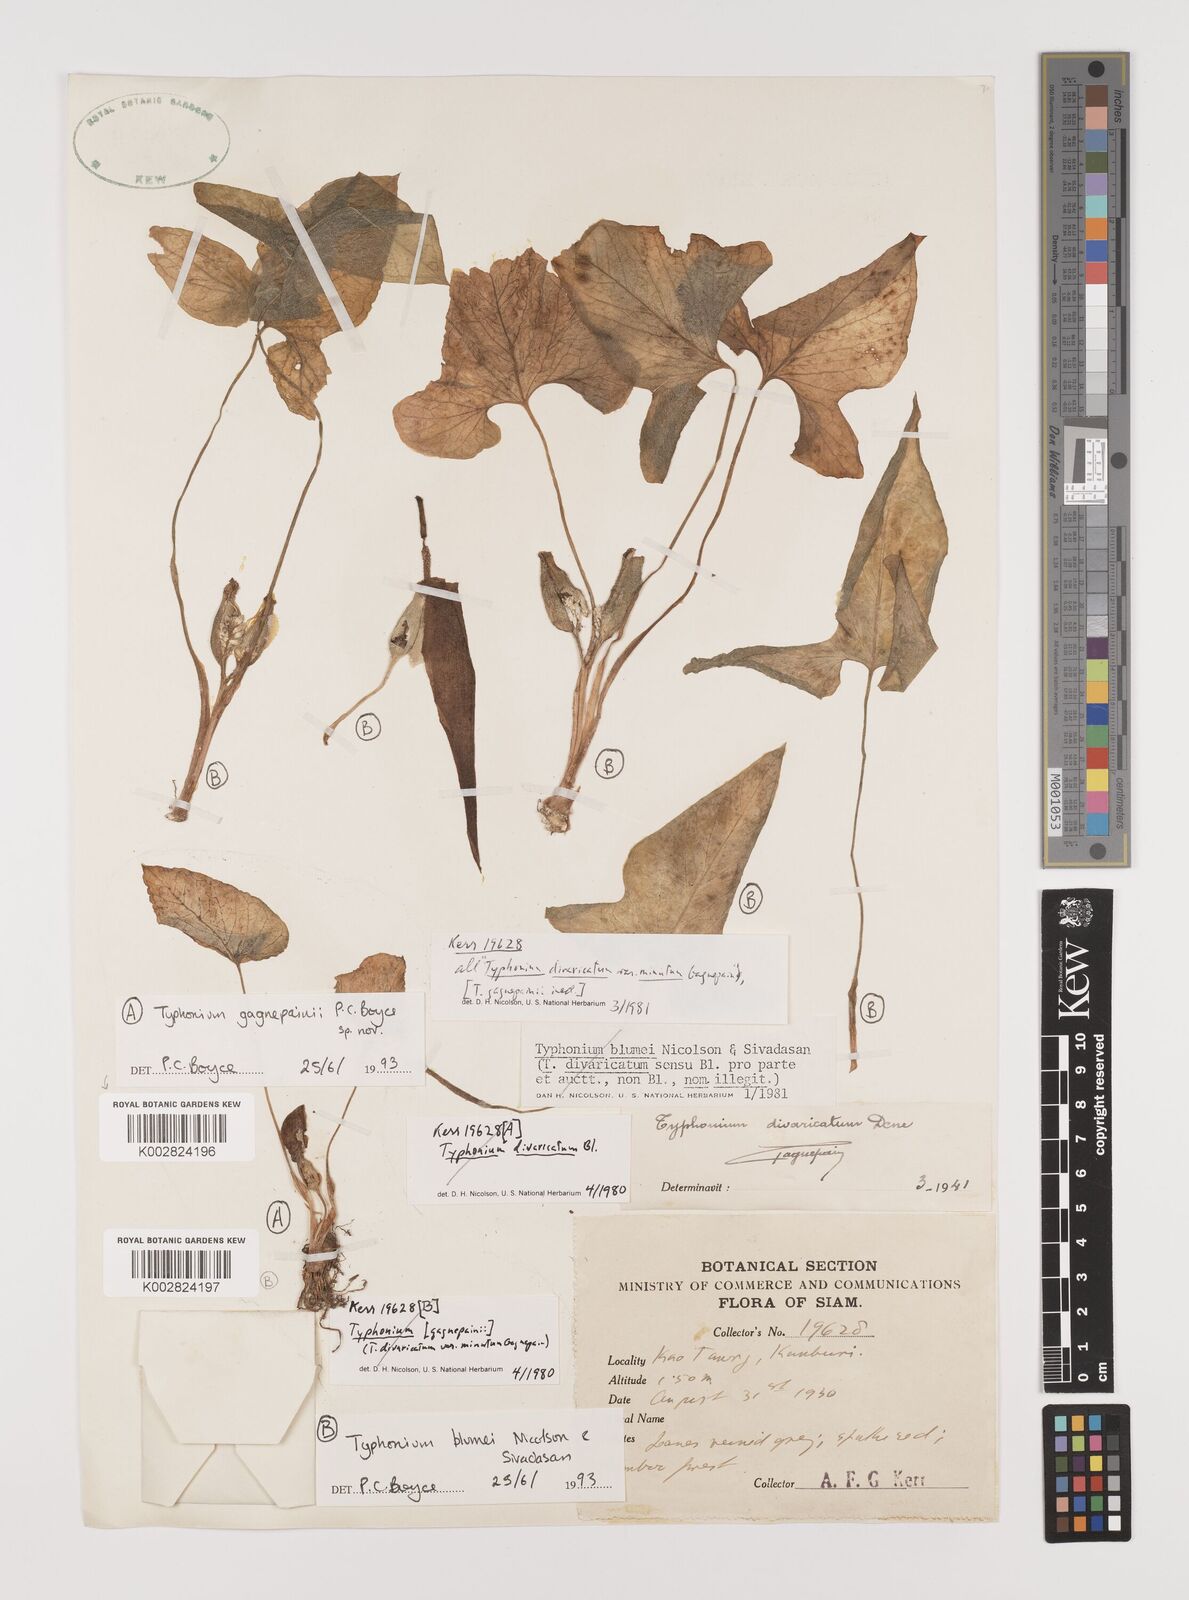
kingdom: Plantae
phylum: Tracheophyta
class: Liliopsida
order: Alismatales
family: Araceae
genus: Typhonium
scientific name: Typhonium blumei
